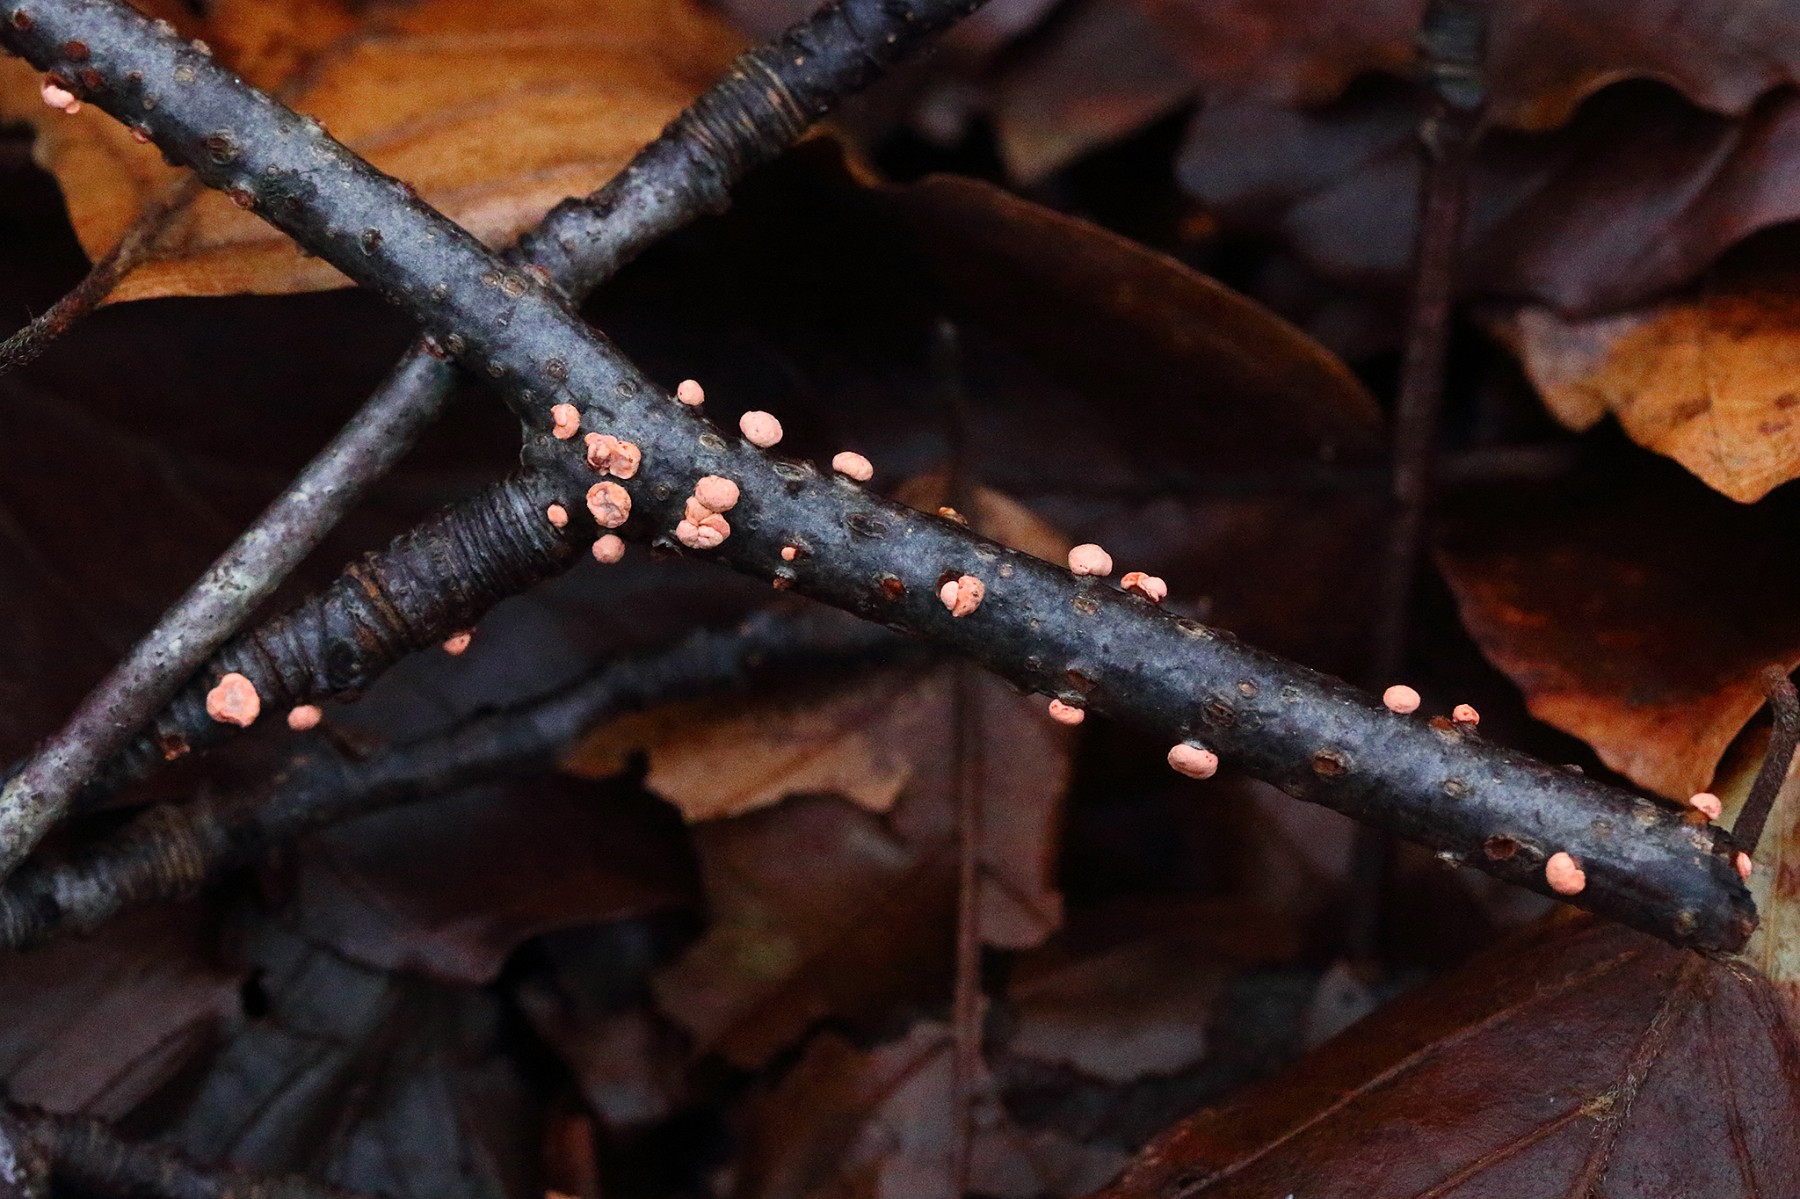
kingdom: Fungi
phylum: Ascomycota
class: Sordariomycetes
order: Hypocreales
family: Nectriaceae
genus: Nectria
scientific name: Nectria cinnabarina
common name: almindelig cinnobersvamp
